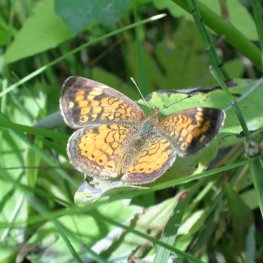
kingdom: Animalia
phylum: Arthropoda
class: Insecta
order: Lepidoptera
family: Nymphalidae
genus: Phyciodes
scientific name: Phyciodes tharos
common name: Pearl Crescent
